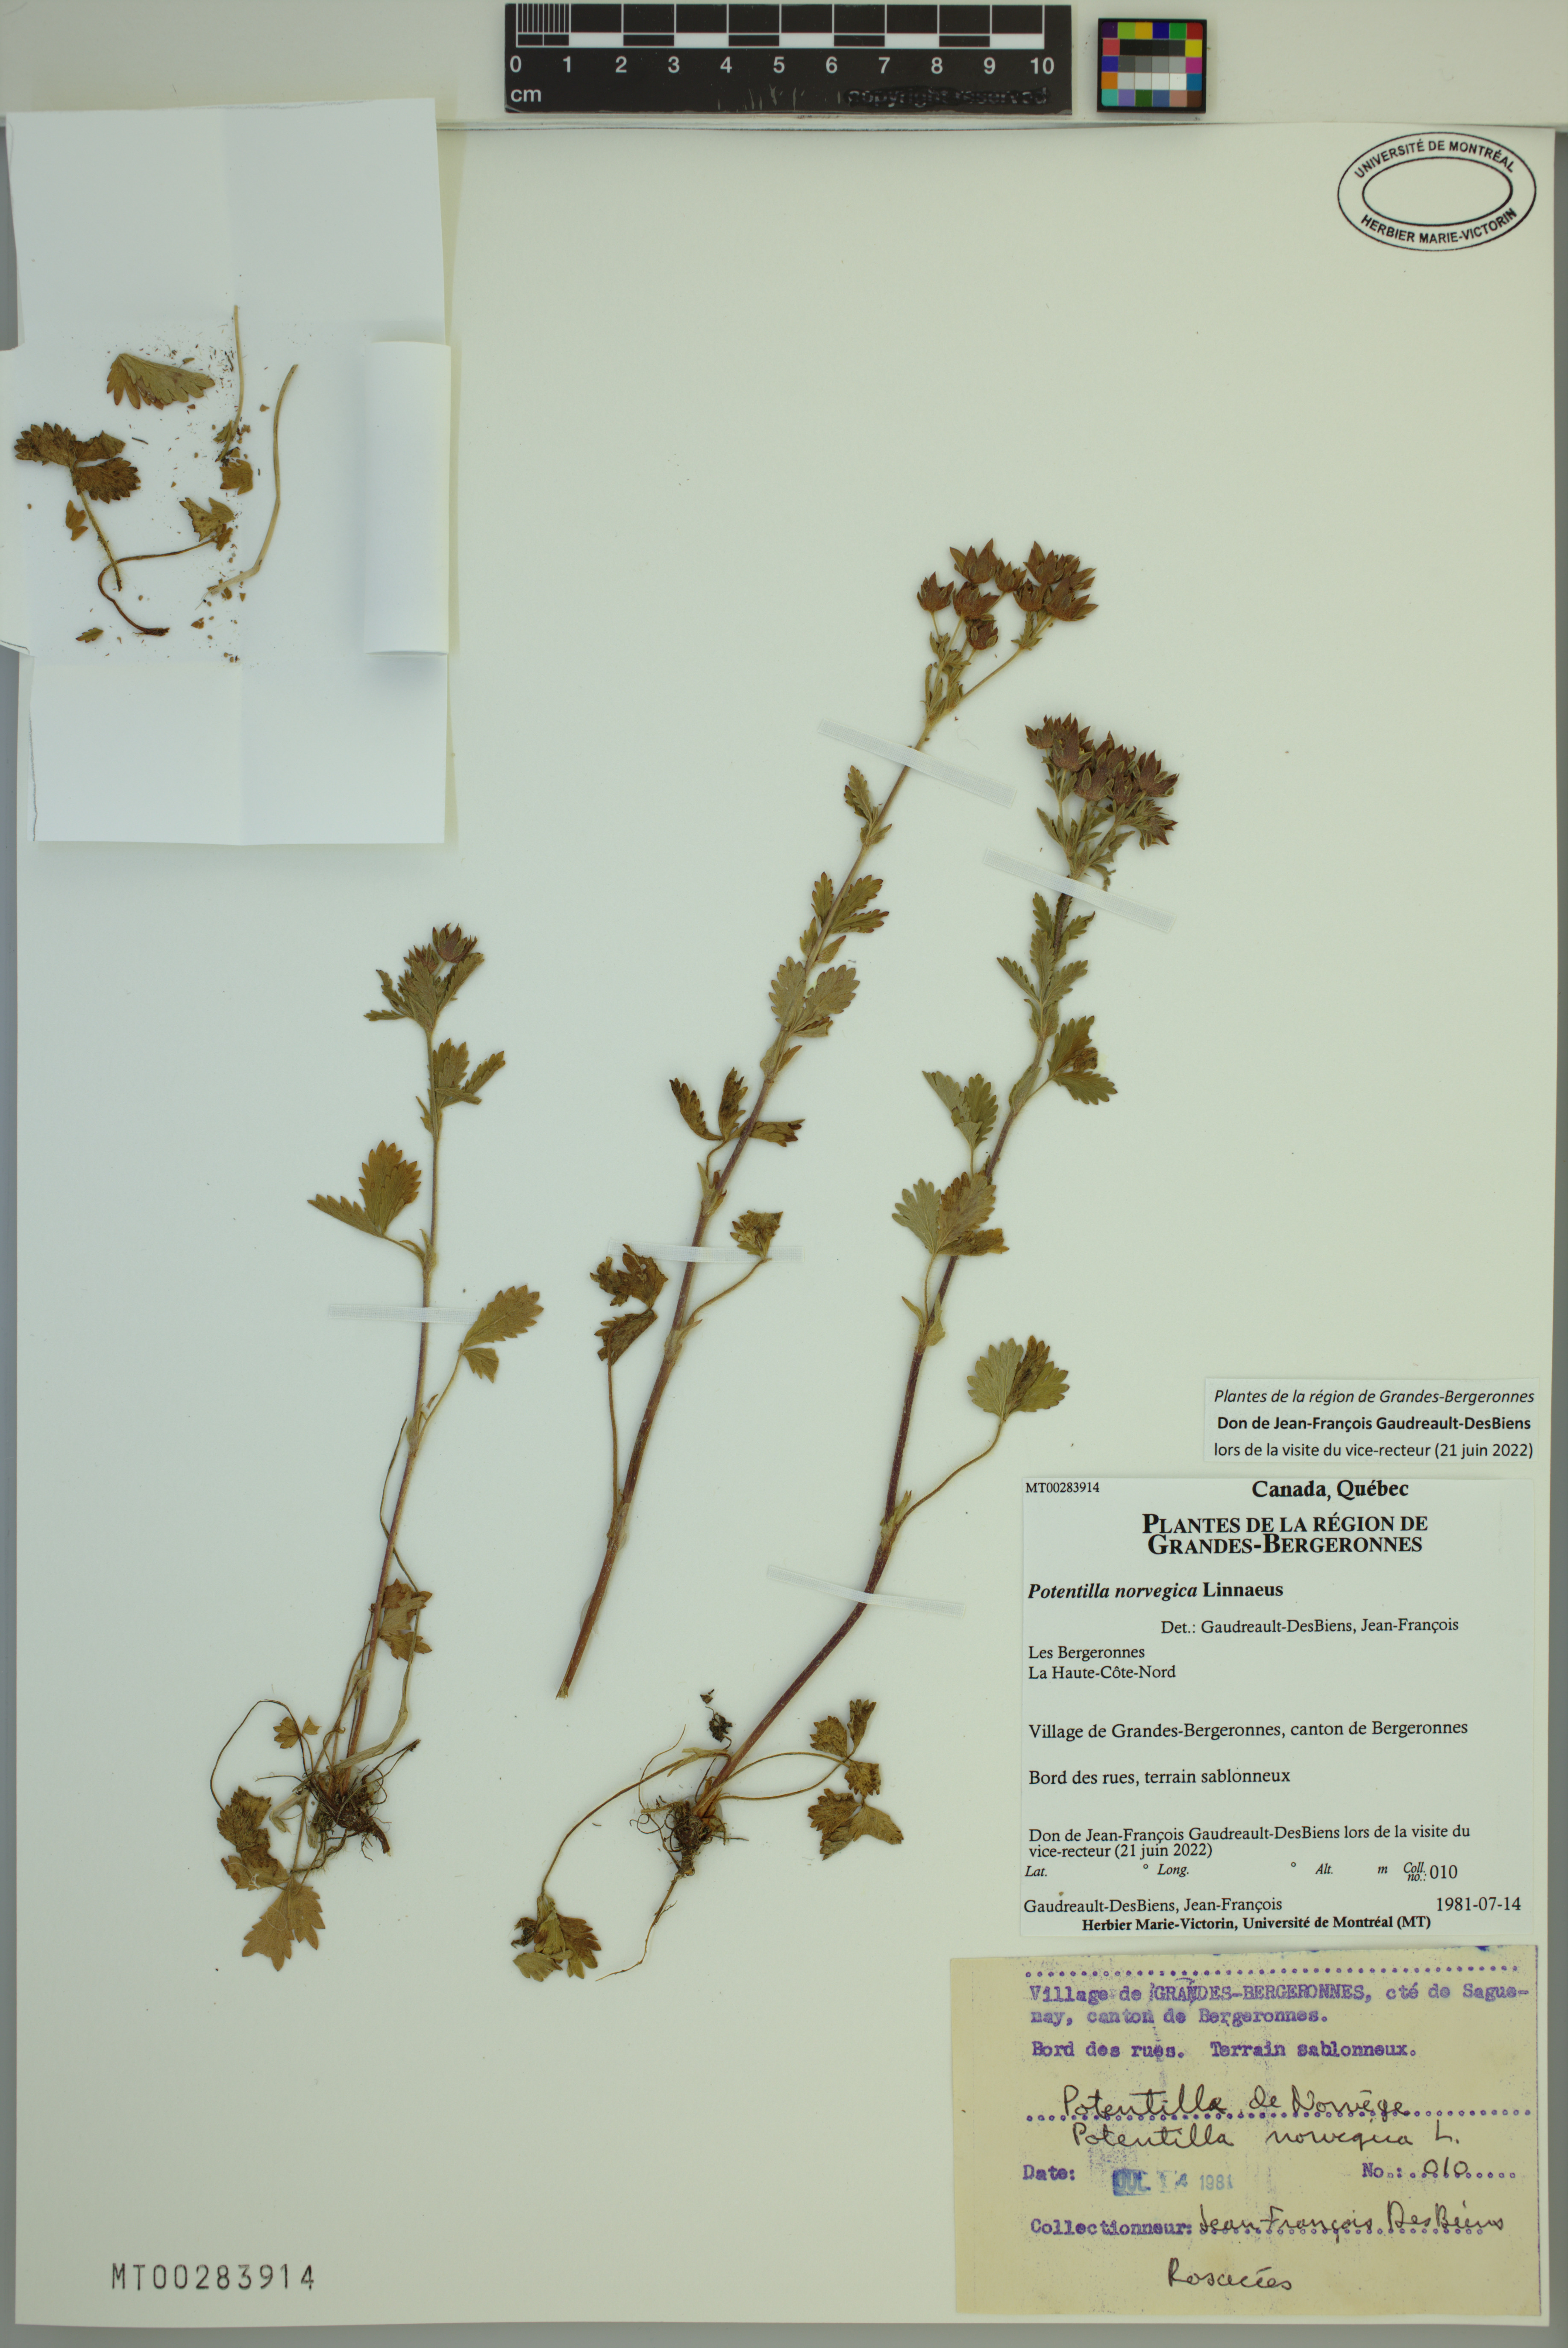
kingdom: Plantae
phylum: Tracheophyta
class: Magnoliopsida
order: Rosales
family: Rosaceae
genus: Potentilla
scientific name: Potentilla norvegica
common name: Ternate-leaved cinquefoil
